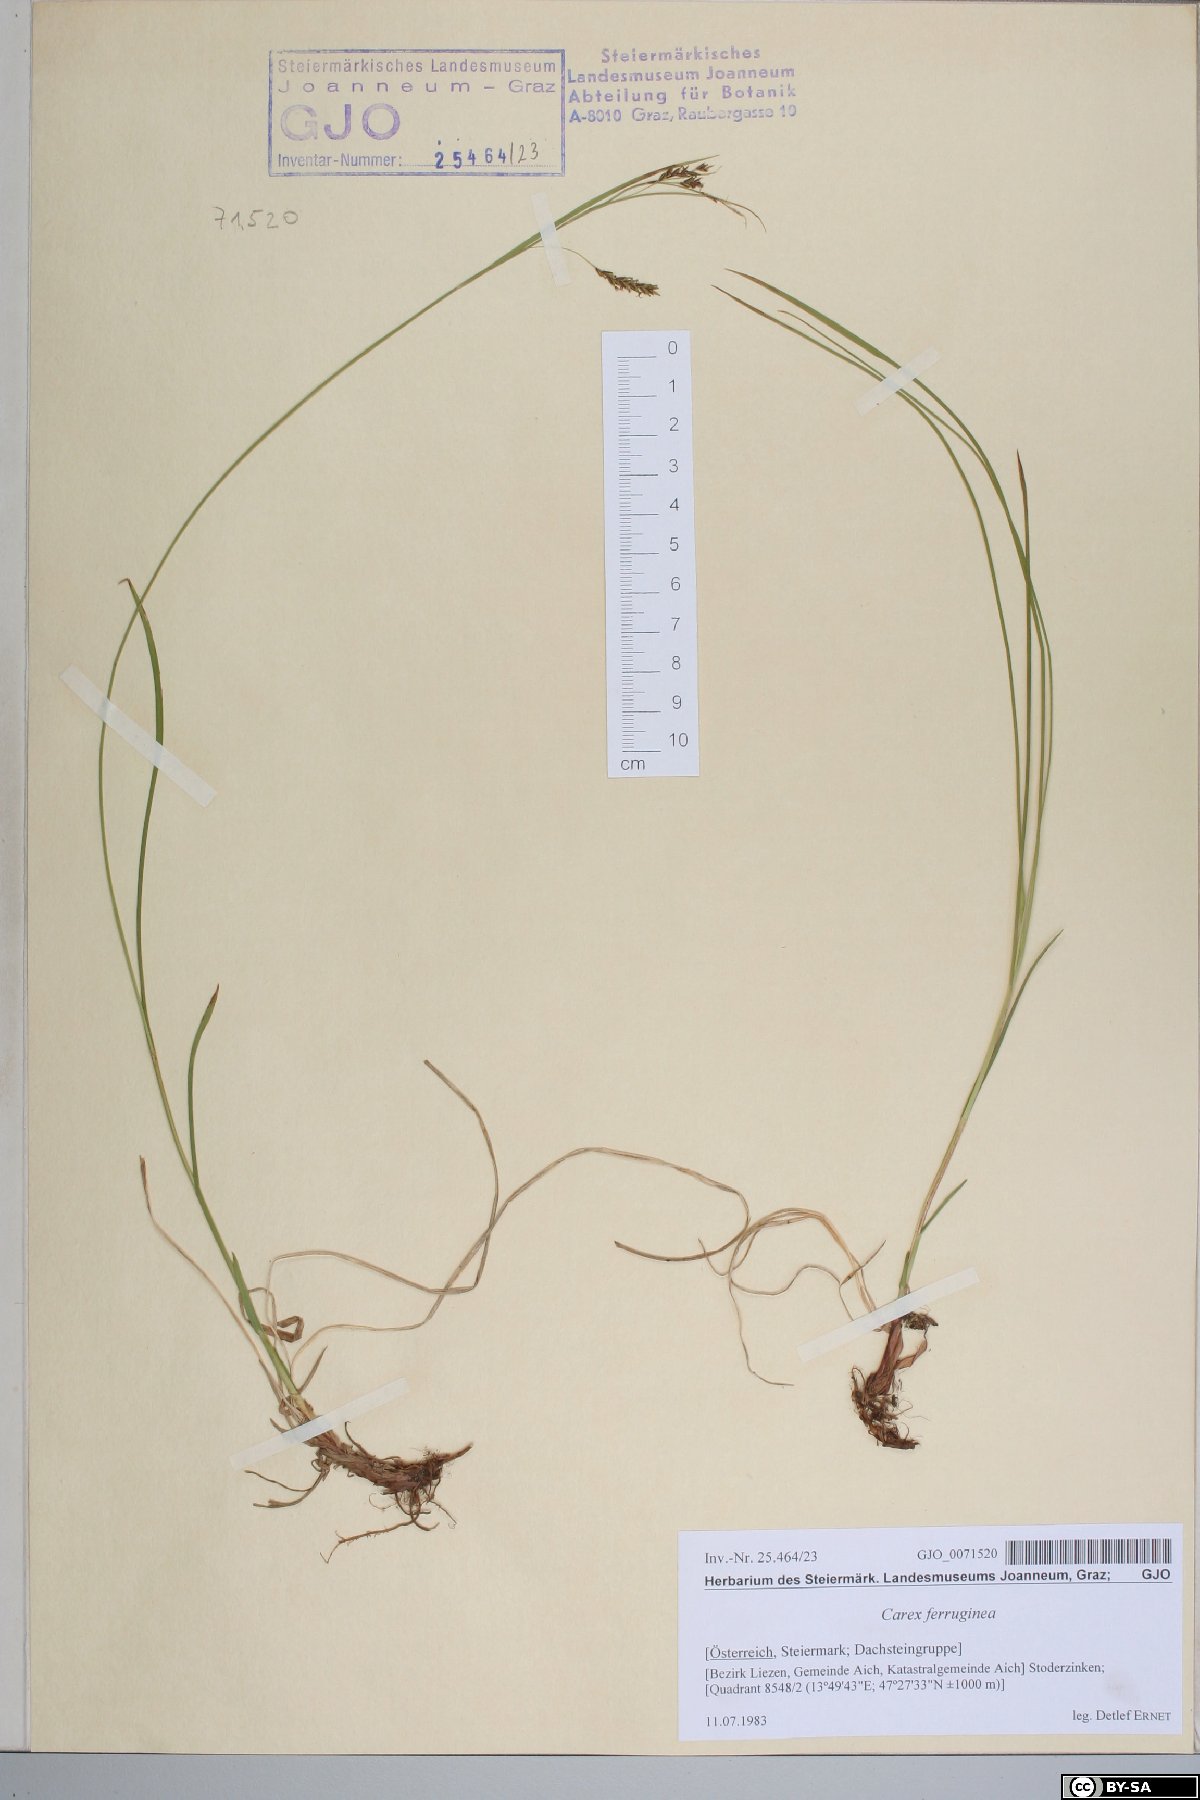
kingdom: Plantae
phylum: Tracheophyta
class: Liliopsida
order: Poales
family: Cyperaceae
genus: Carex
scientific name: Carex ferruginea
